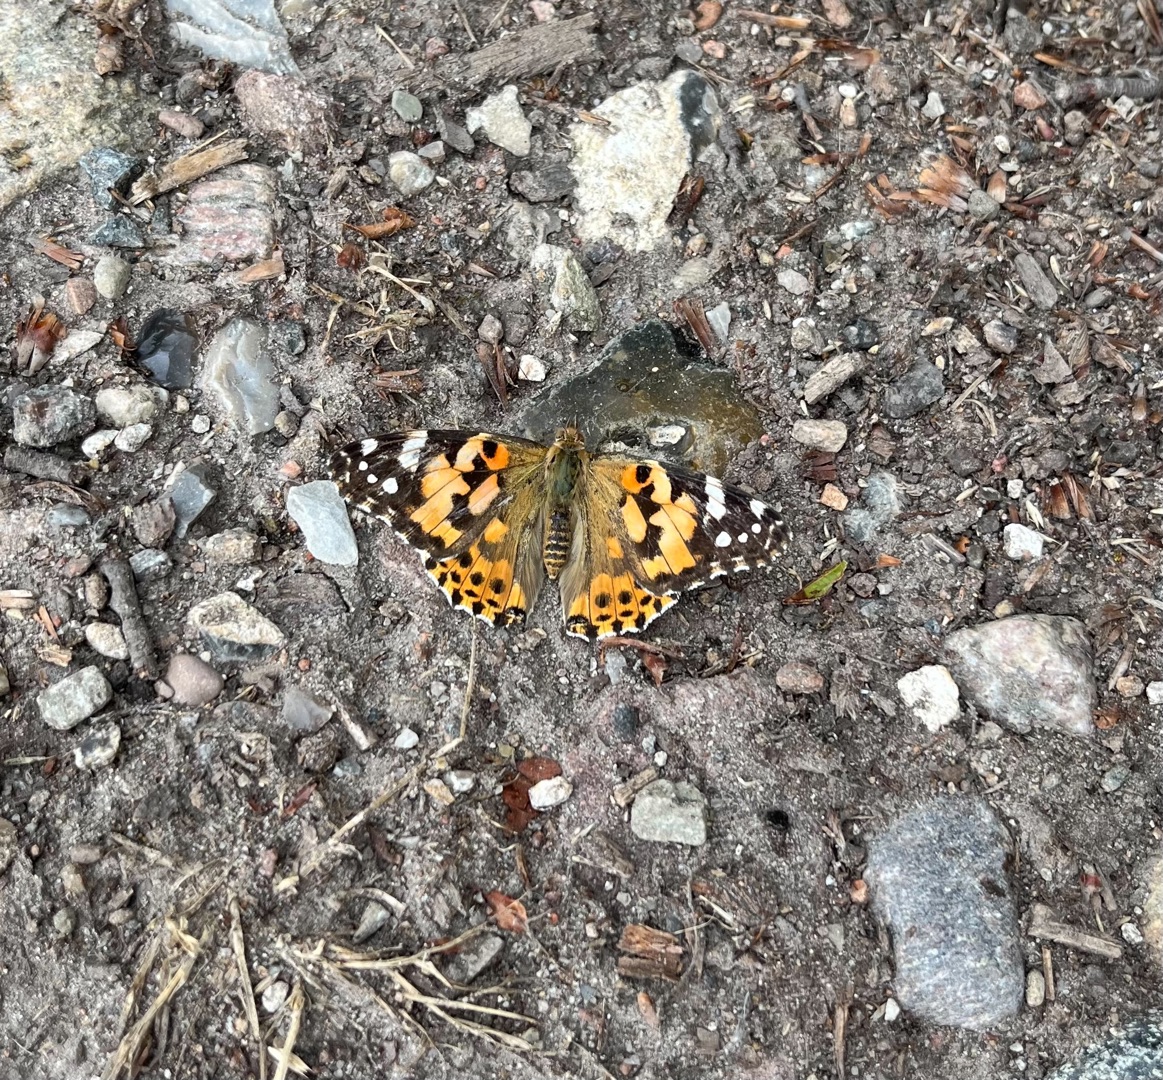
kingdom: Animalia
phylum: Arthropoda
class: Insecta
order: Lepidoptera
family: Nymphalidae
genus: Vanessa
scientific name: Vanessa cardui
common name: Tidselsommerfugl
